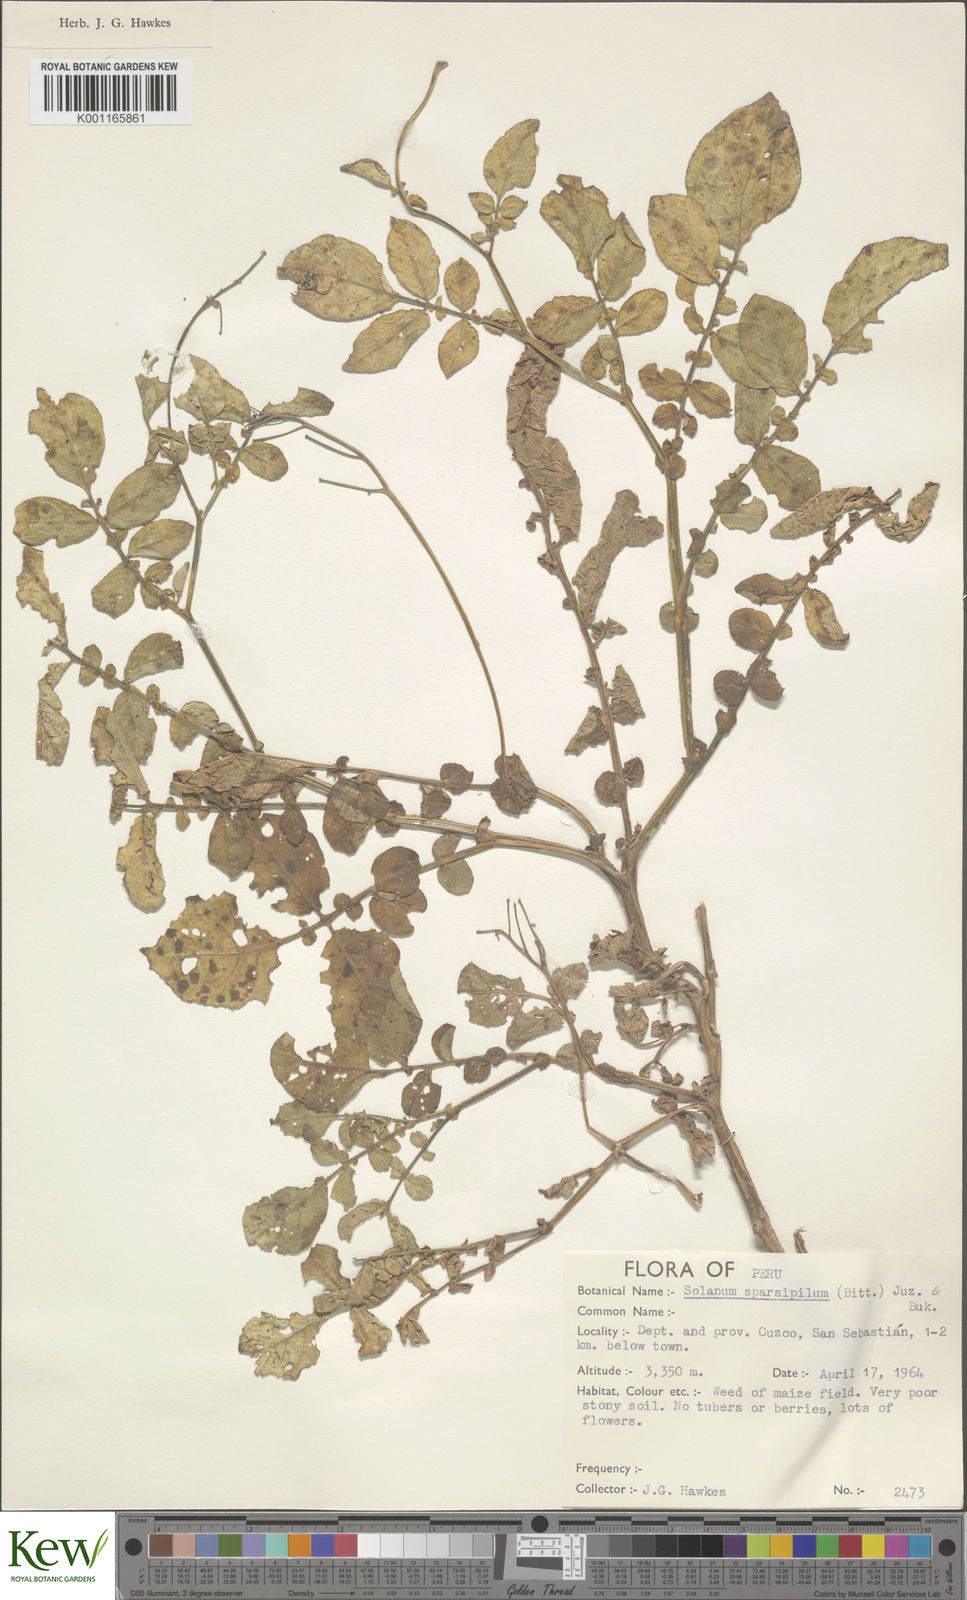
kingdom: Plantae
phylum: Tracheophyta
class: Magnoliopsida
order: Solanales
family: Solanaceae
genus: Solanum
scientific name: Solanum brevicaule
